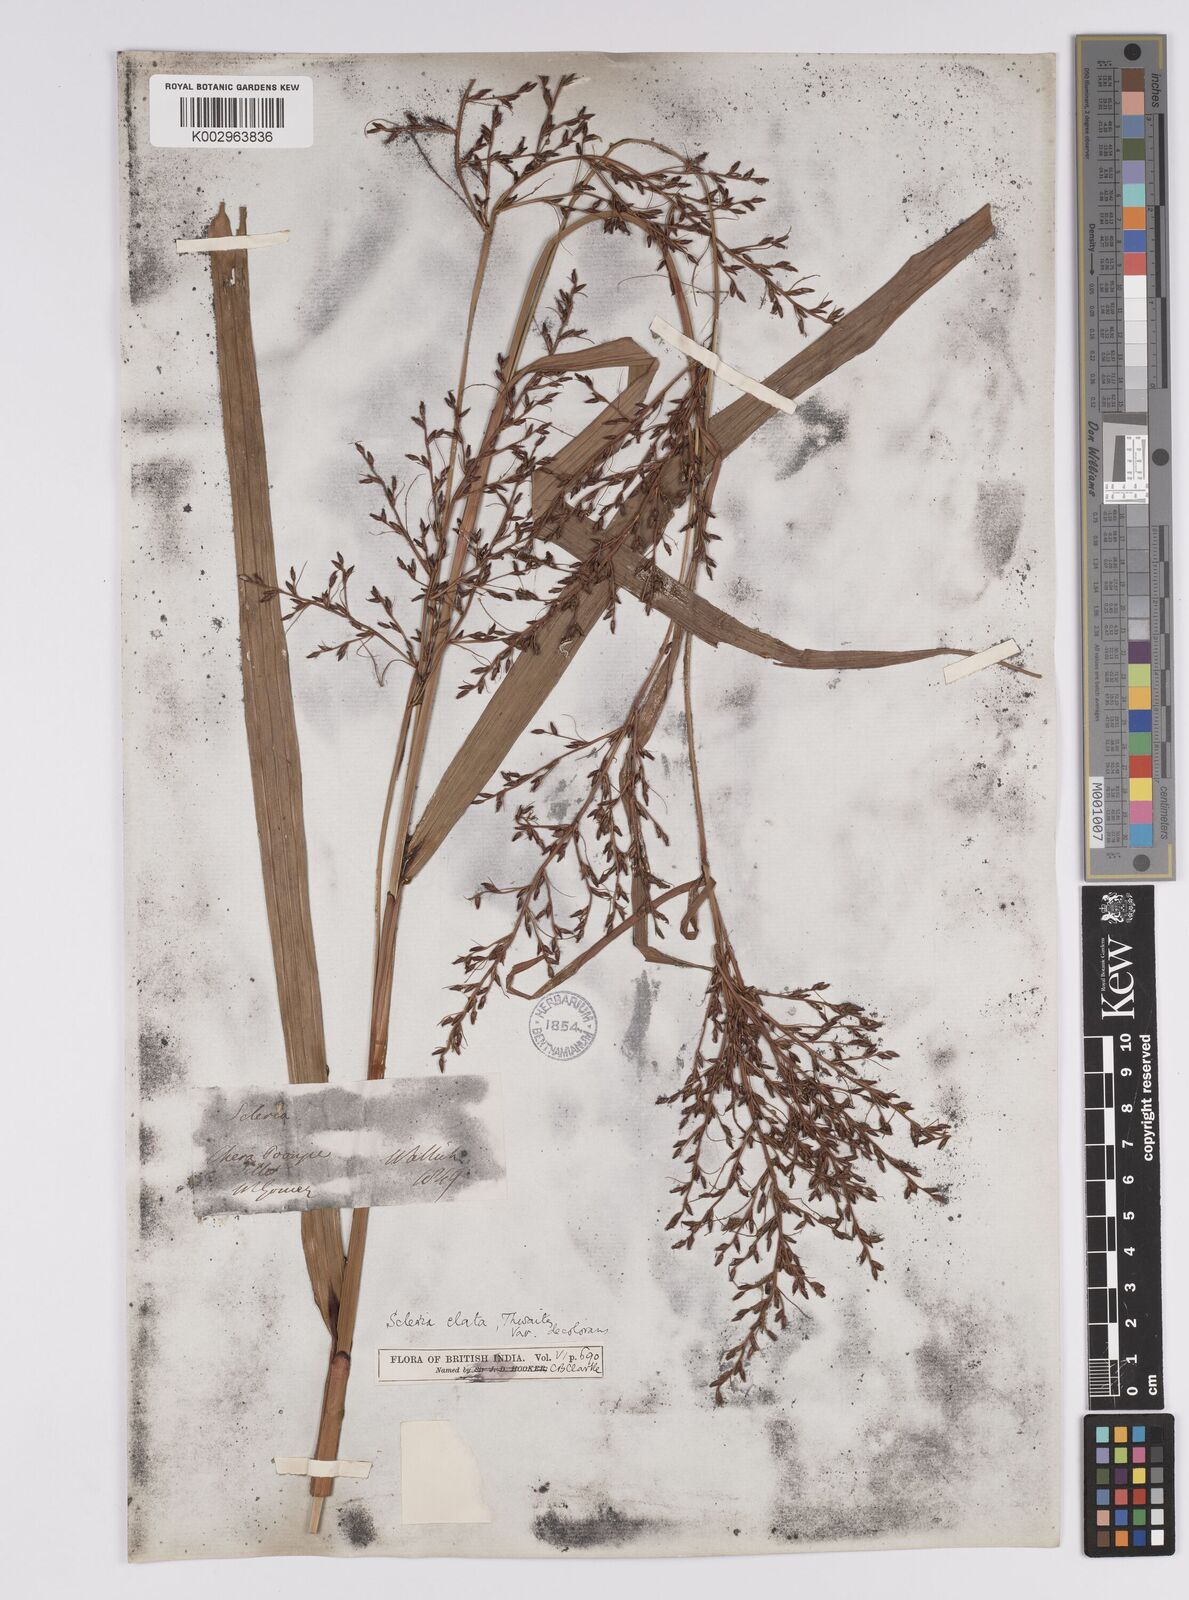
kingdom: Plantae
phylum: Tracheophyta
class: Liliopsida
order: Poales
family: Cyperaceae
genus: Scleria
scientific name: Scleria terrestris
